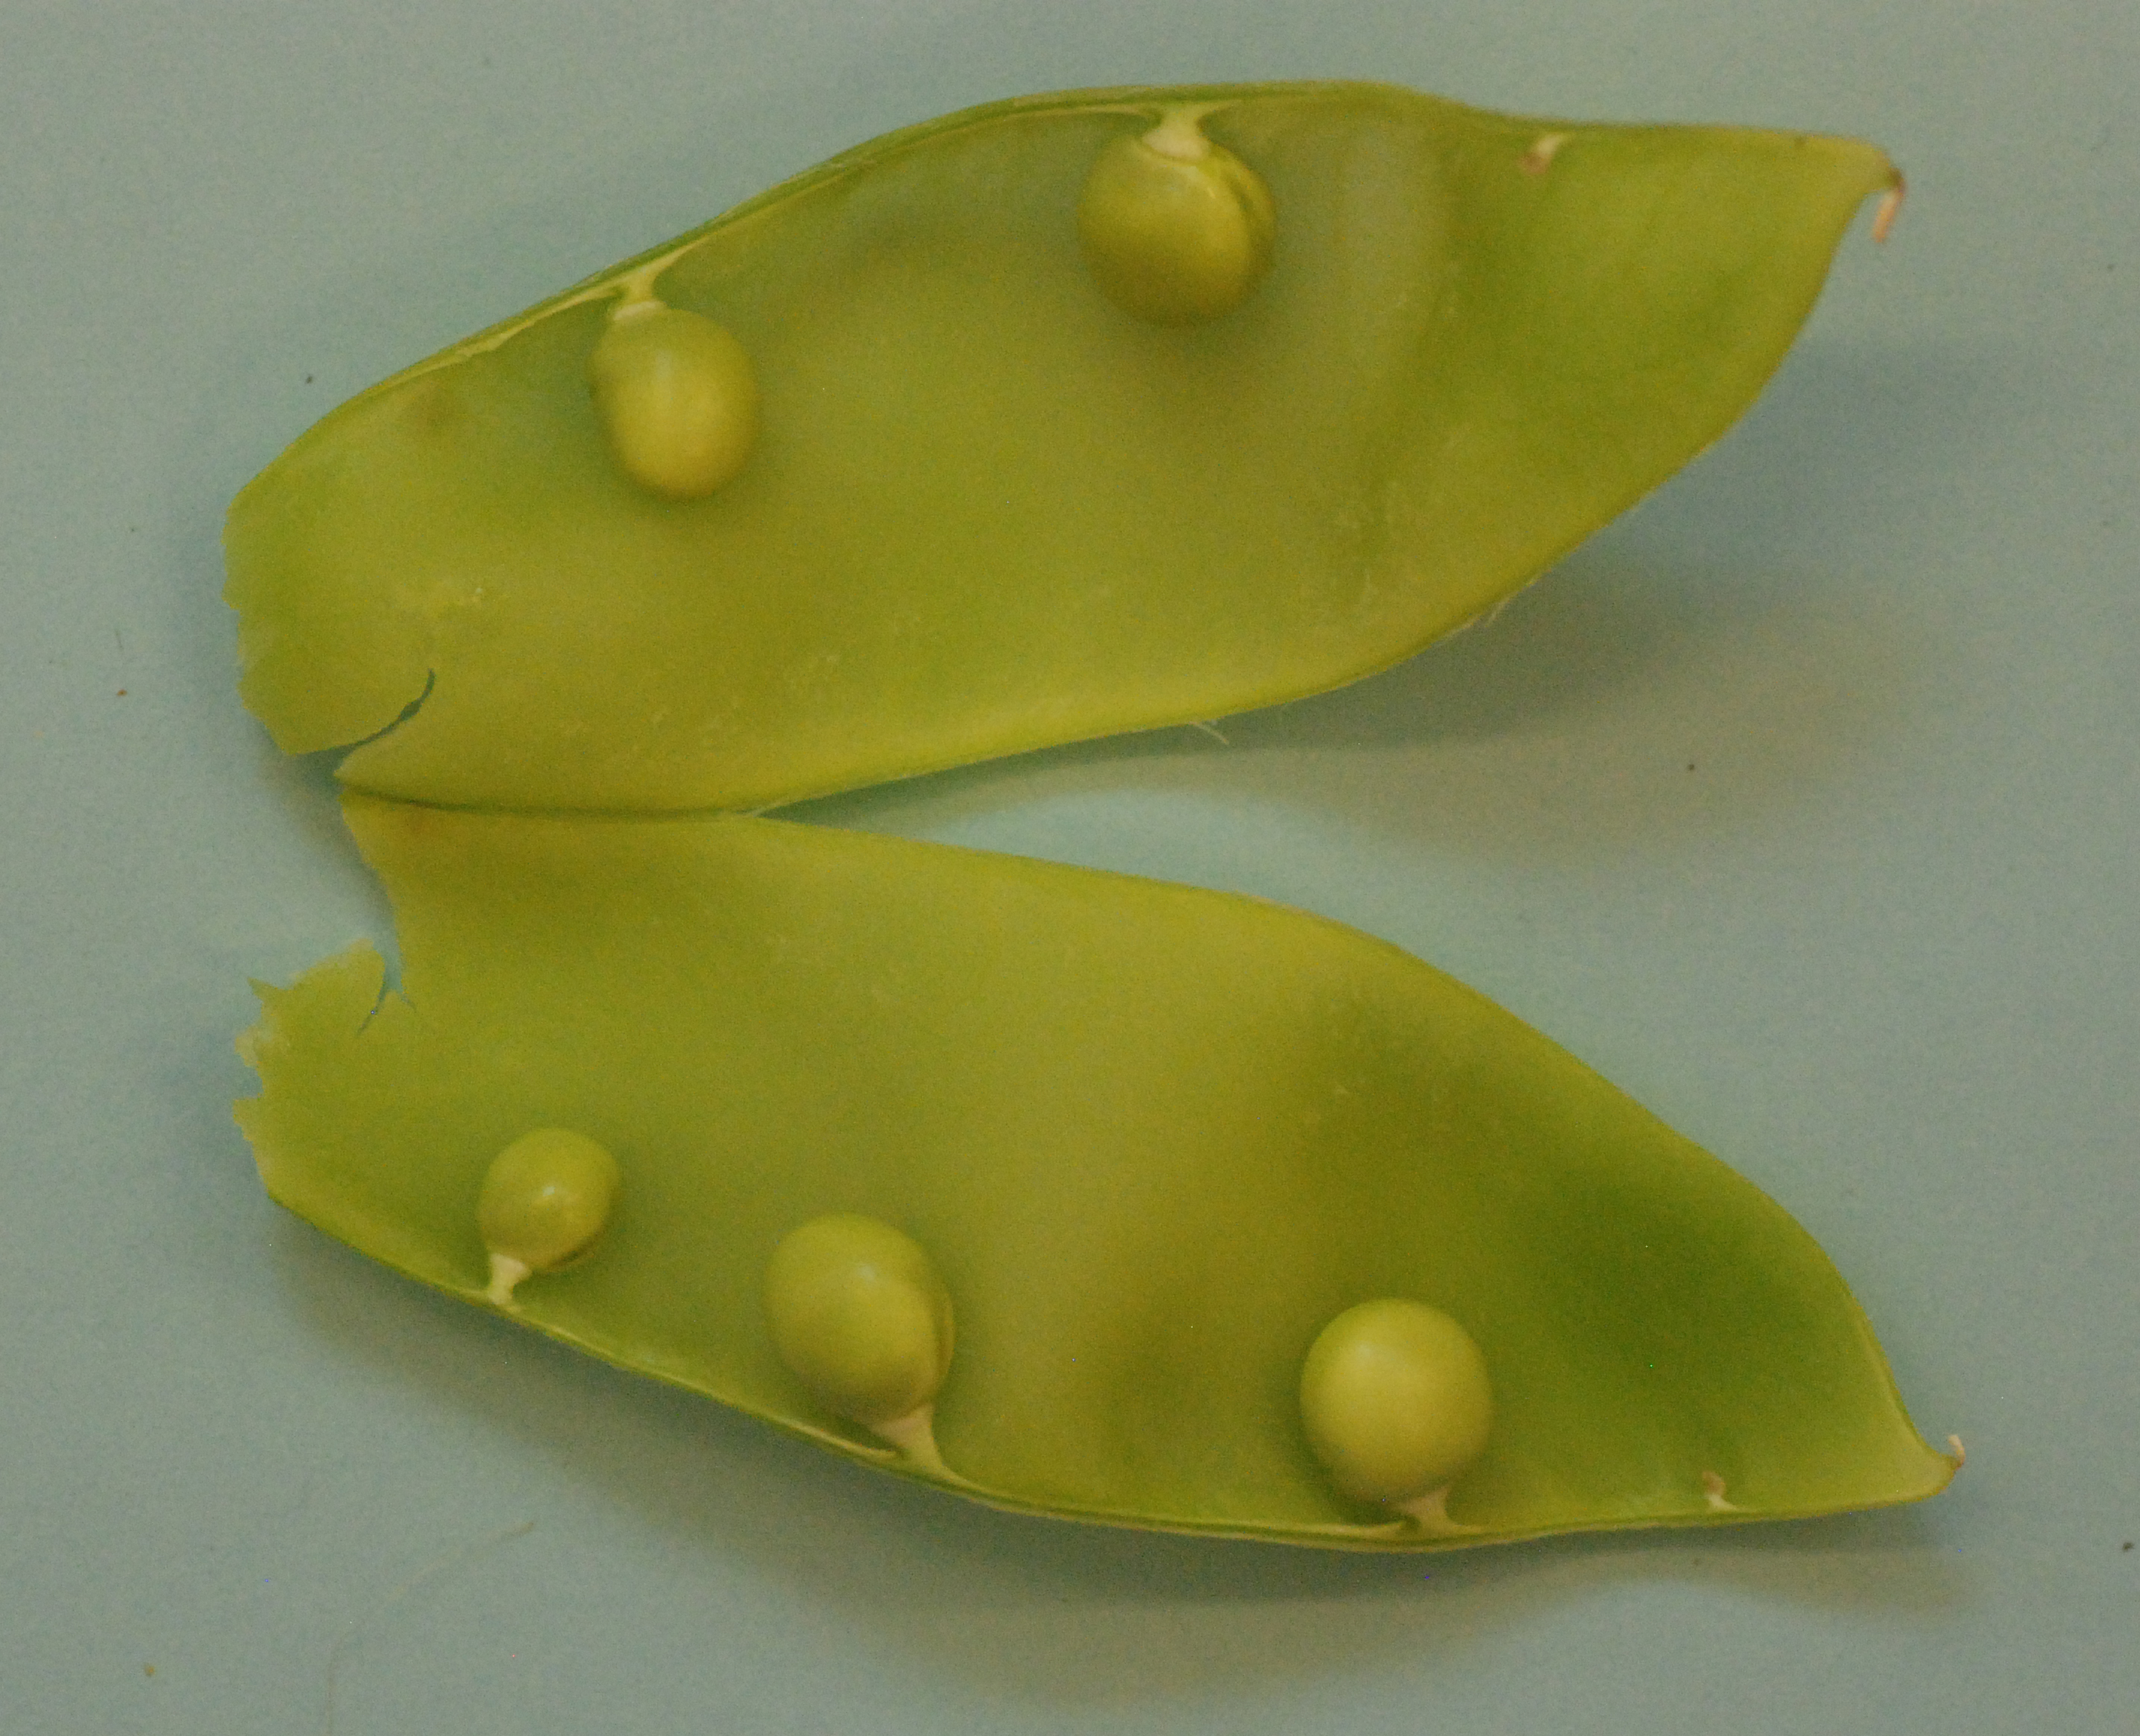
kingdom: Plantae
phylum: Tracheophyta
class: Magnoliopsida
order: Fabales
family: Fabaceae
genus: Lathyrus
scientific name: Lathyrus oleraceus
